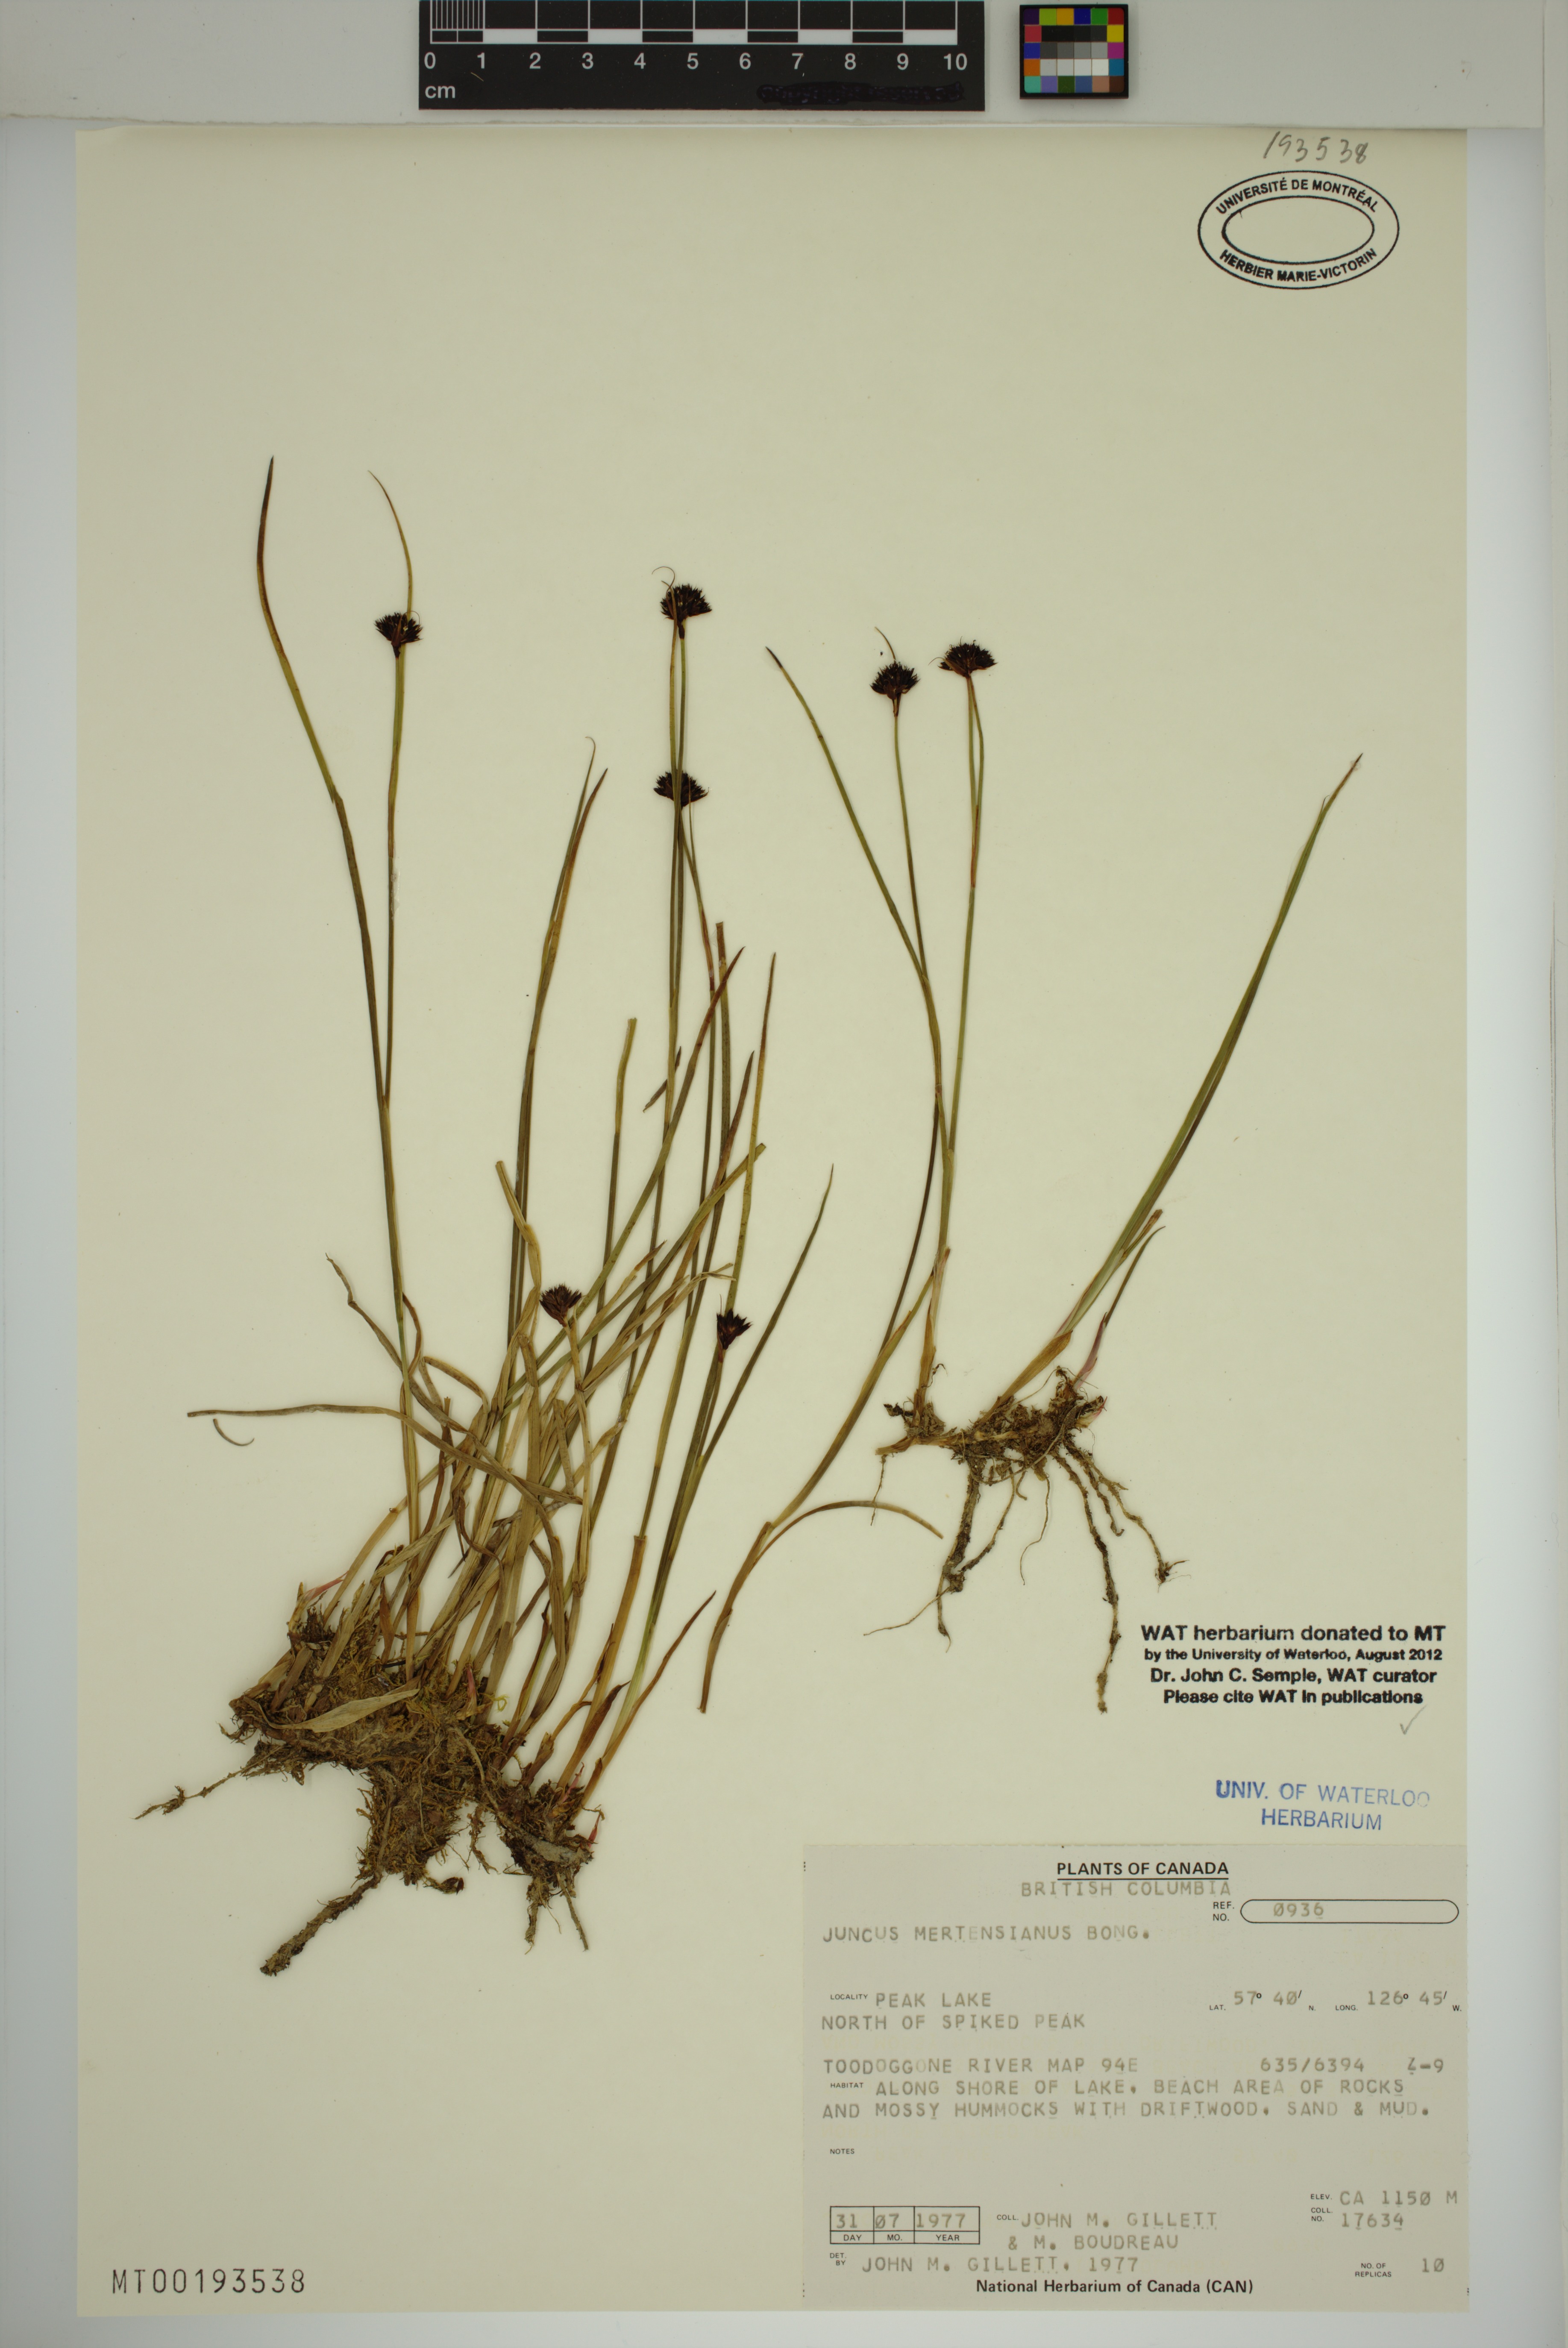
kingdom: Plantae
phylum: Tracheophyta
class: Liliopsida
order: Poales
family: Juncaceae
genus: Juncus
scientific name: Juncus mertensianus
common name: Merten's rush
